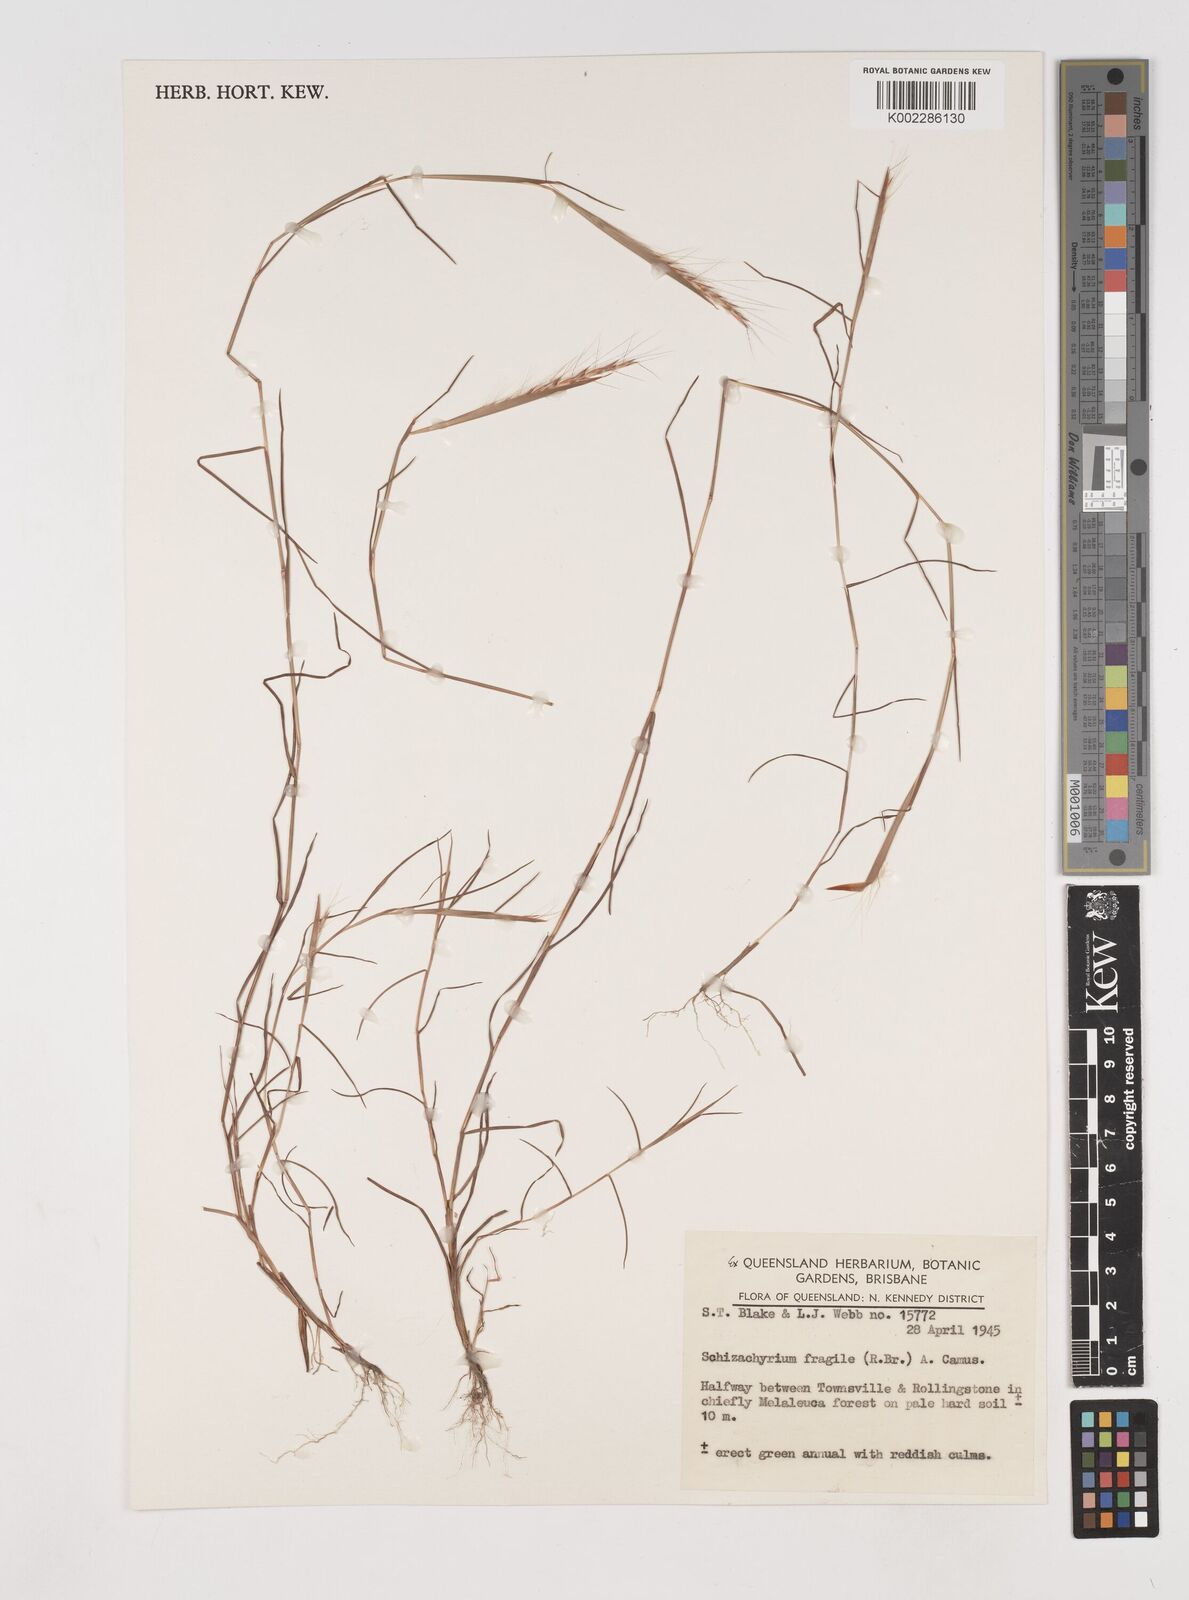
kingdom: Plantae
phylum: Tracheophyta
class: Liliopsida
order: Poales
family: Poaceae
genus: Schizachyrium
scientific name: Schizachyrium fragile
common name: Red spathe grass
